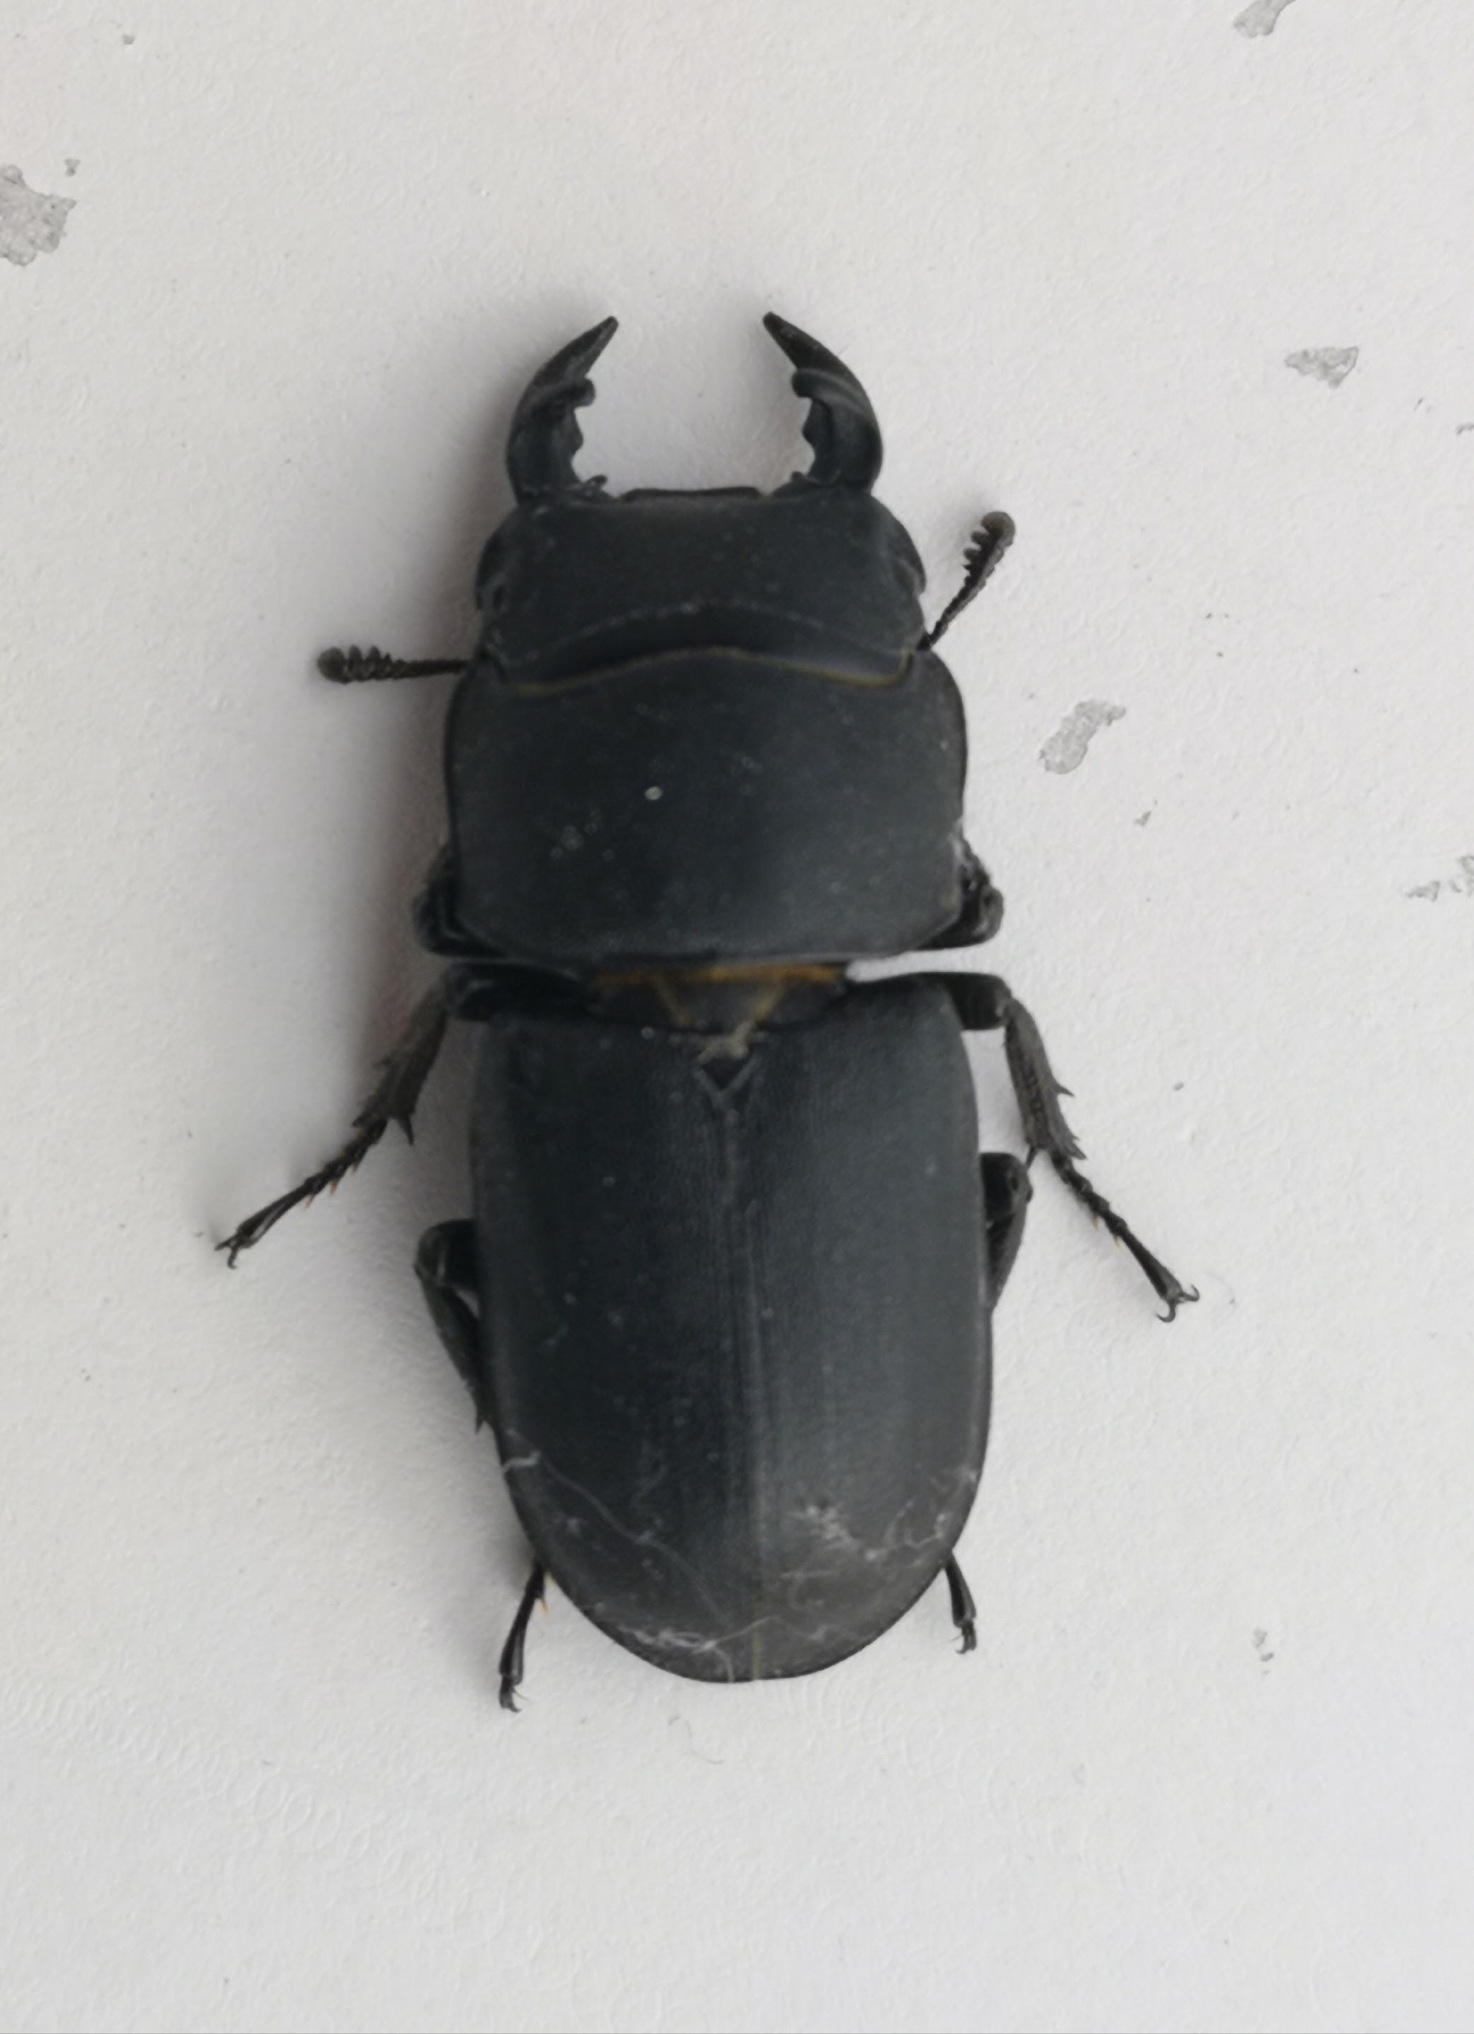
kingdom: Animalia
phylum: Arthropoda
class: Insecta
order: Coleoptera
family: Lucanidae
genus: Dorcus
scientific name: Dorcus parallelipipedus
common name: Bøghjort
